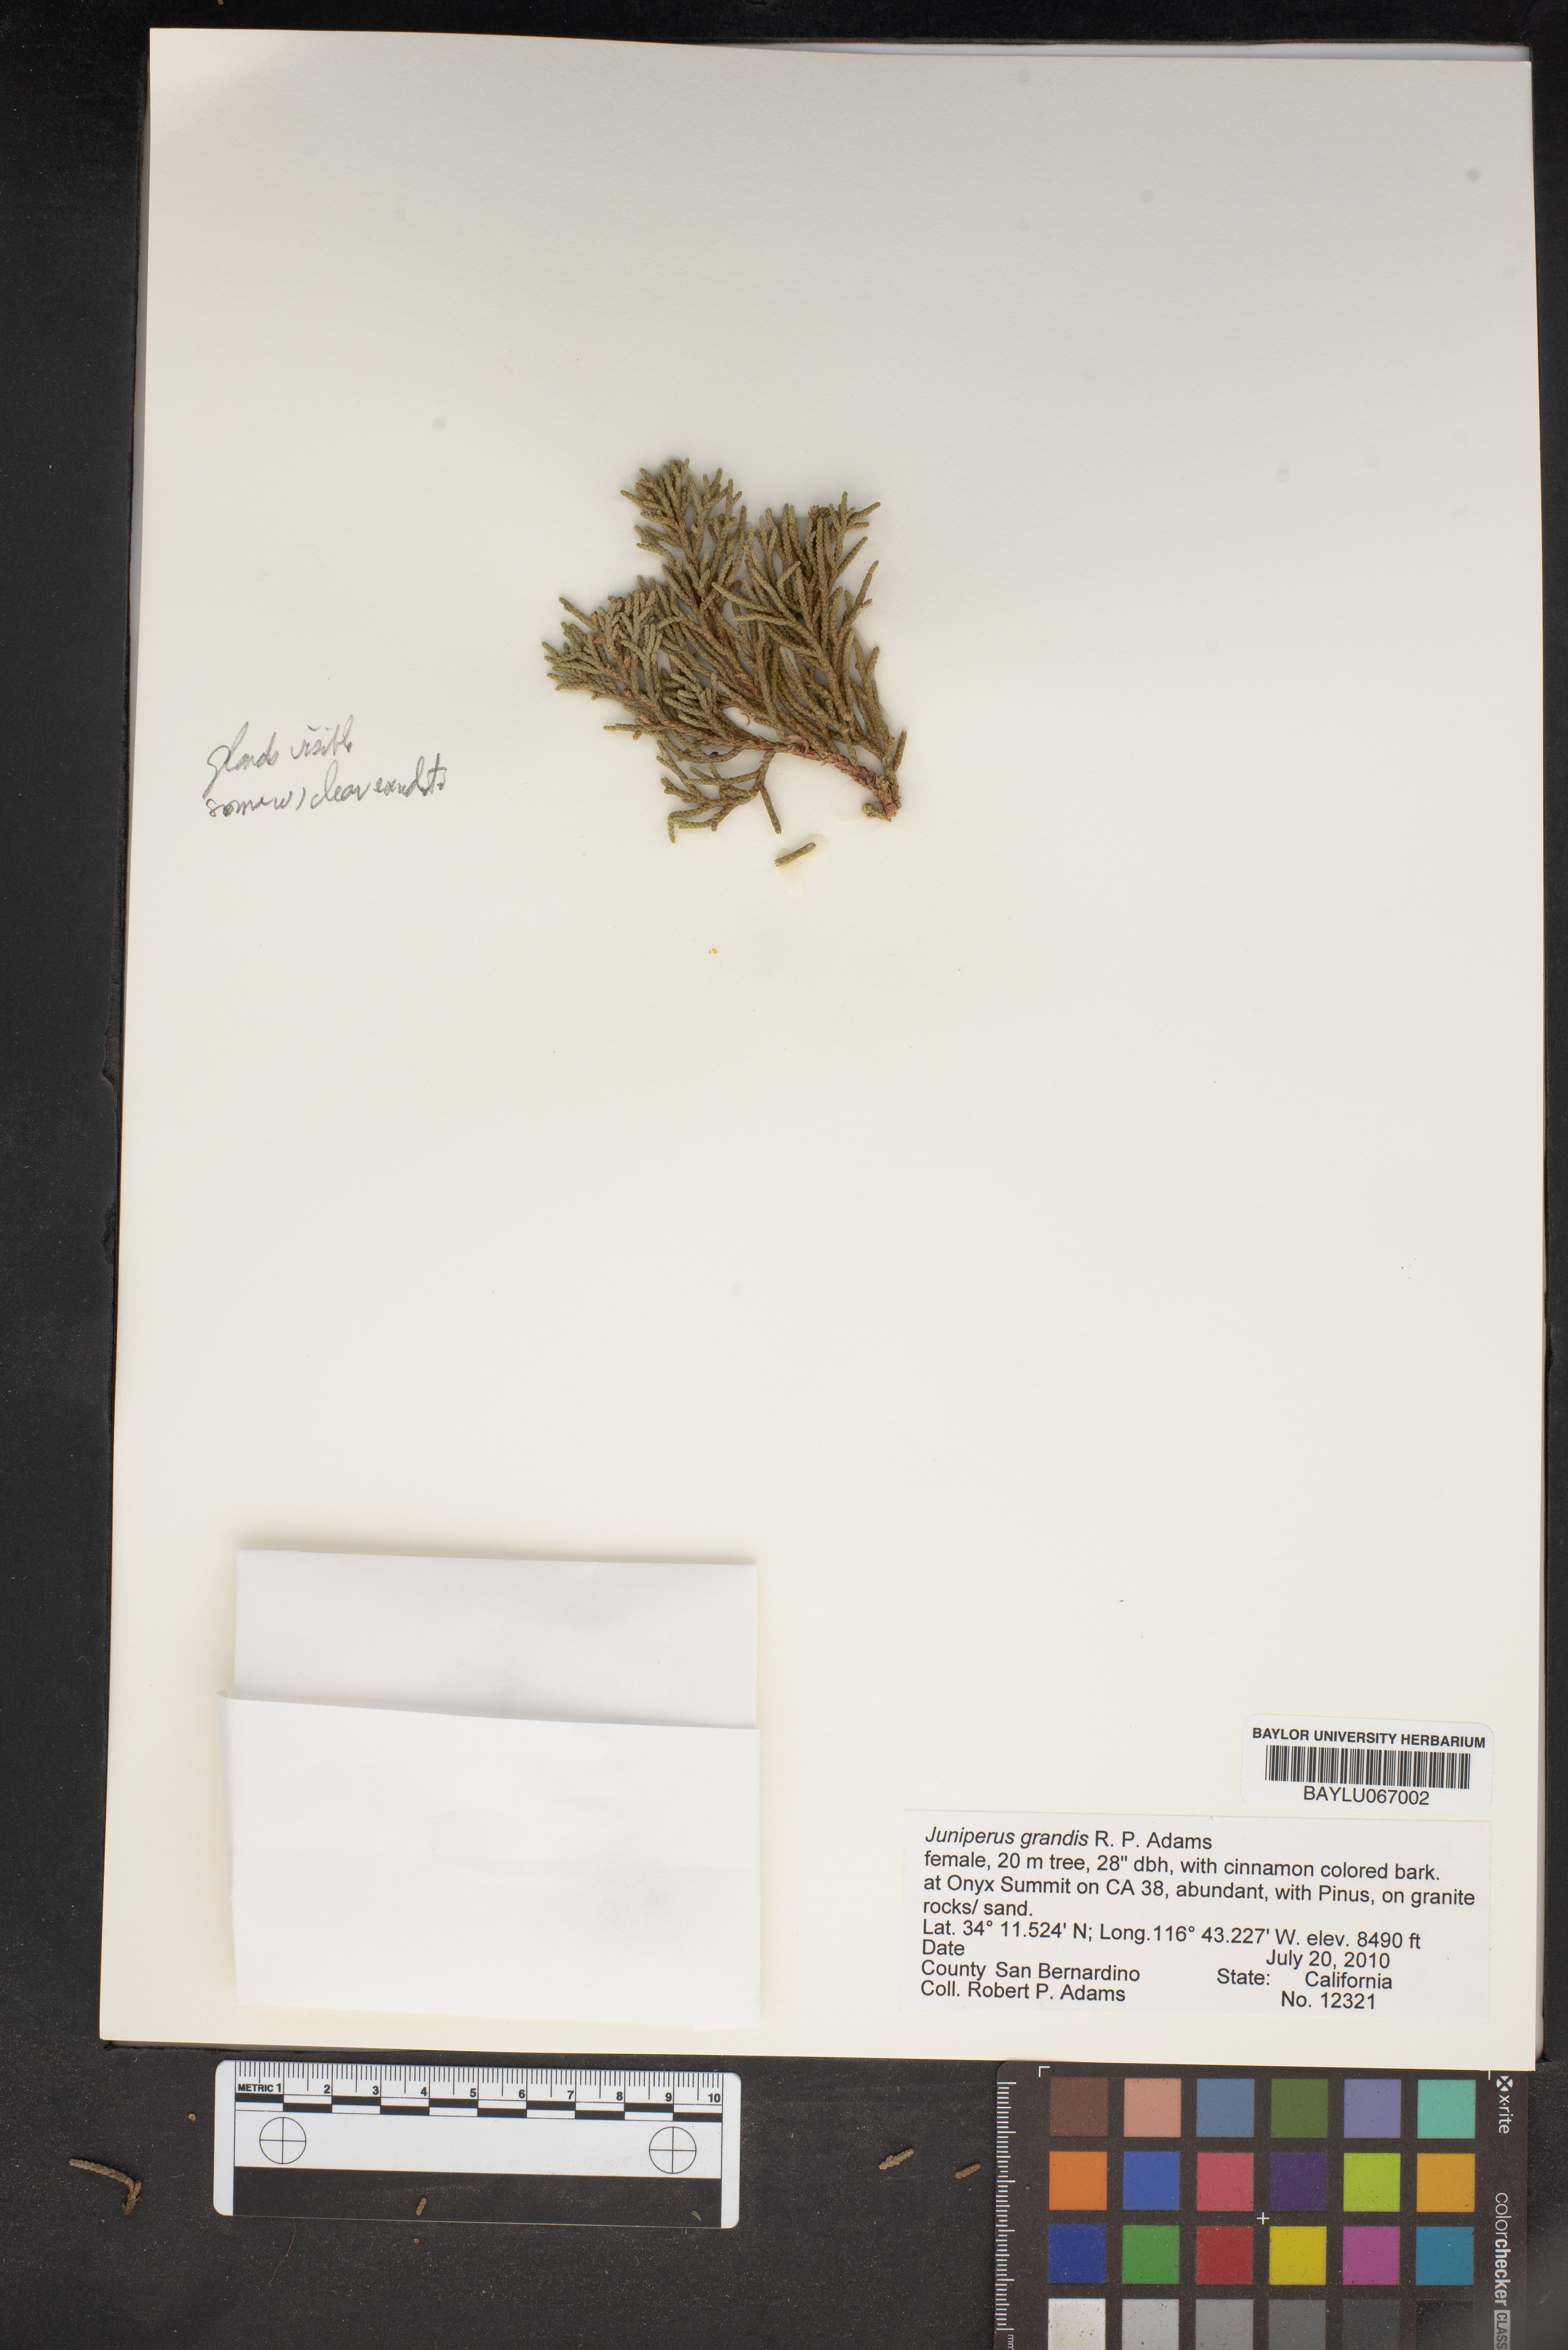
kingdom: Plantae
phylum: Tracheophyta
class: Pinopsida
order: Pinales
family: Cupressaceae
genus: Juniperus
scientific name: Juniperus occidentalis
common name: Western juniper
